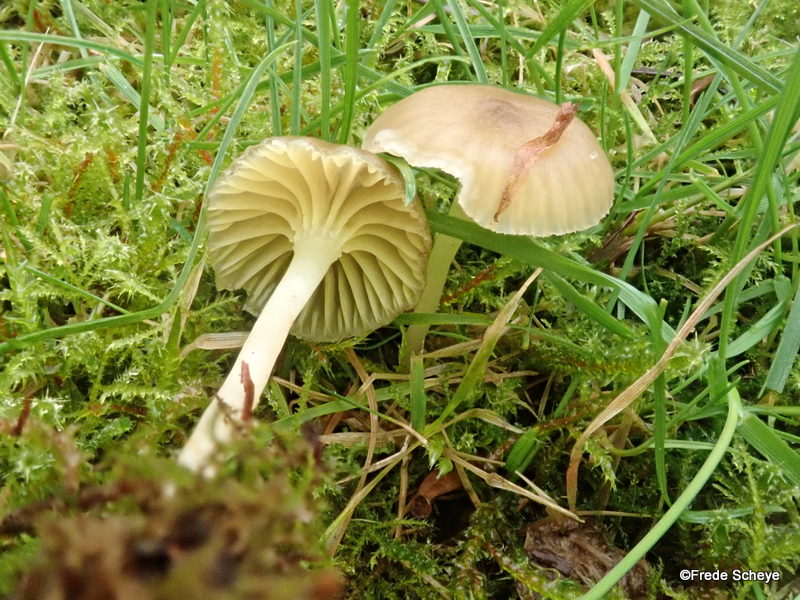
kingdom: Fungi
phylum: Basidiomycota
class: Agaricomycetes
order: Agaricales
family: Hygrophoraceae
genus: Chrysomphalina
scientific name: Chrysomphalina grossula
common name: stød-gyldenblad
